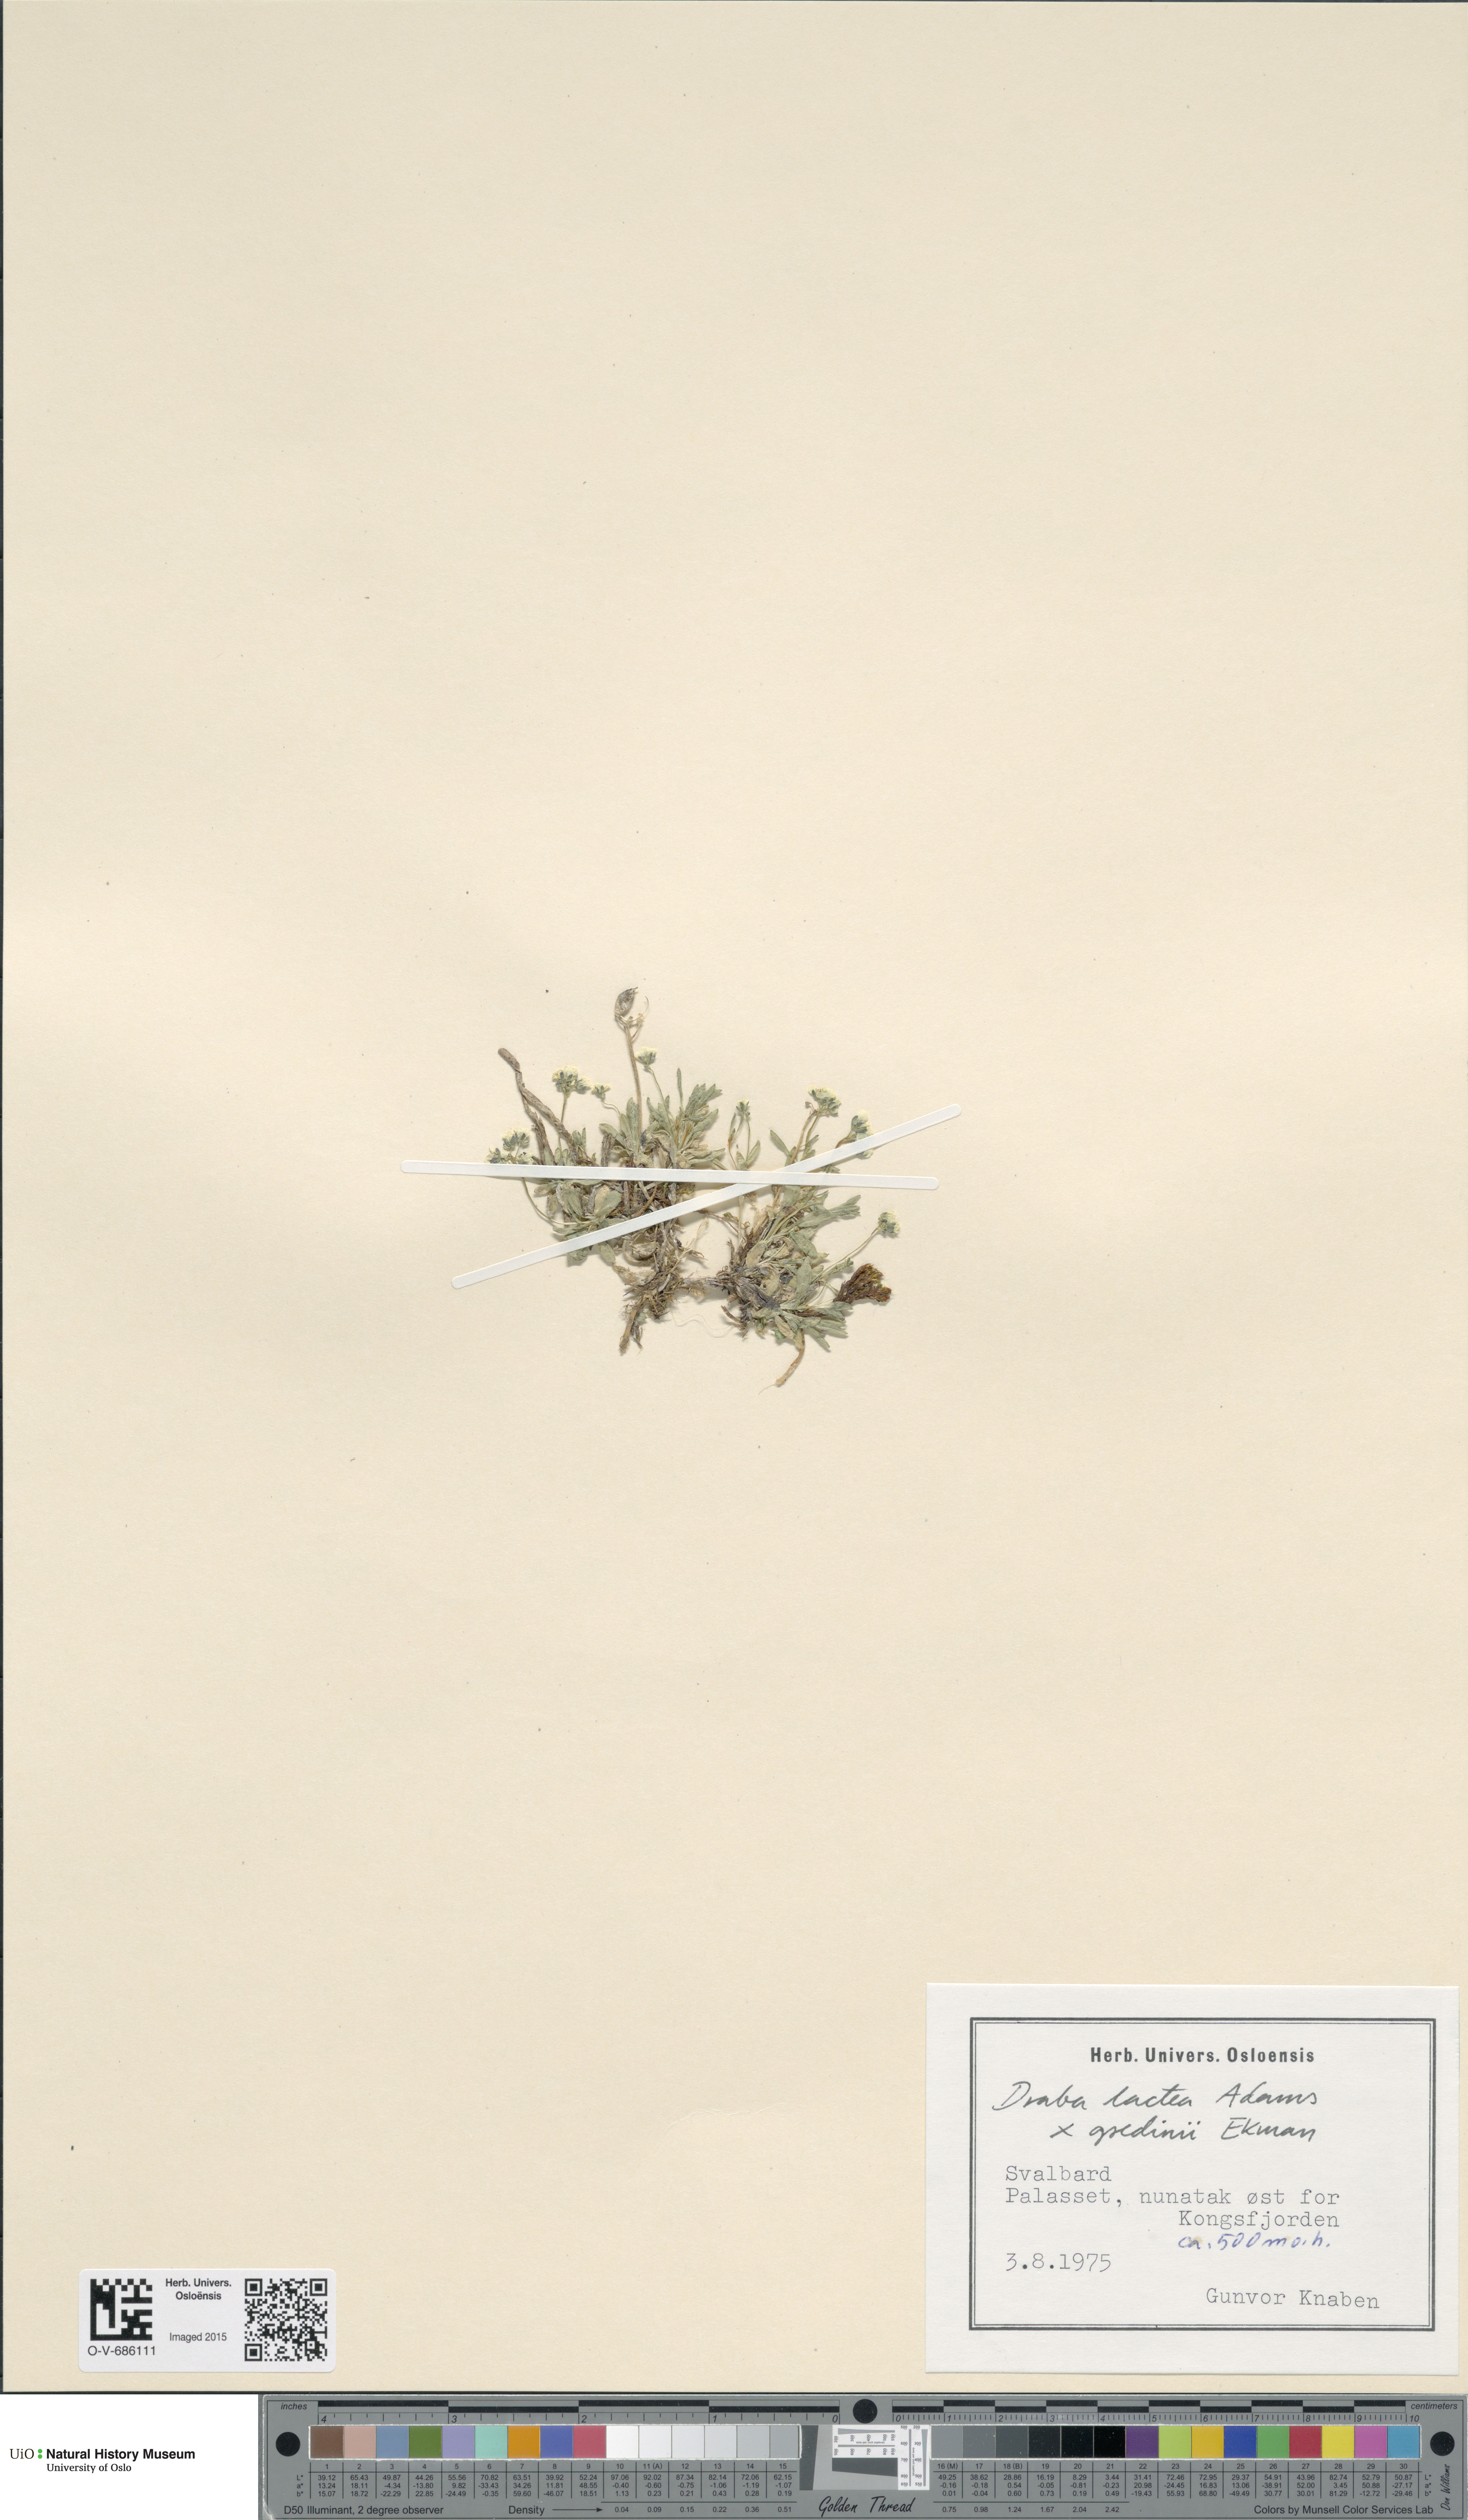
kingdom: Plantae
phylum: Tracheophyta
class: Magnoliopsida
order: Brassicales
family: Brassicaceae
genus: Draba
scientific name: Draba
